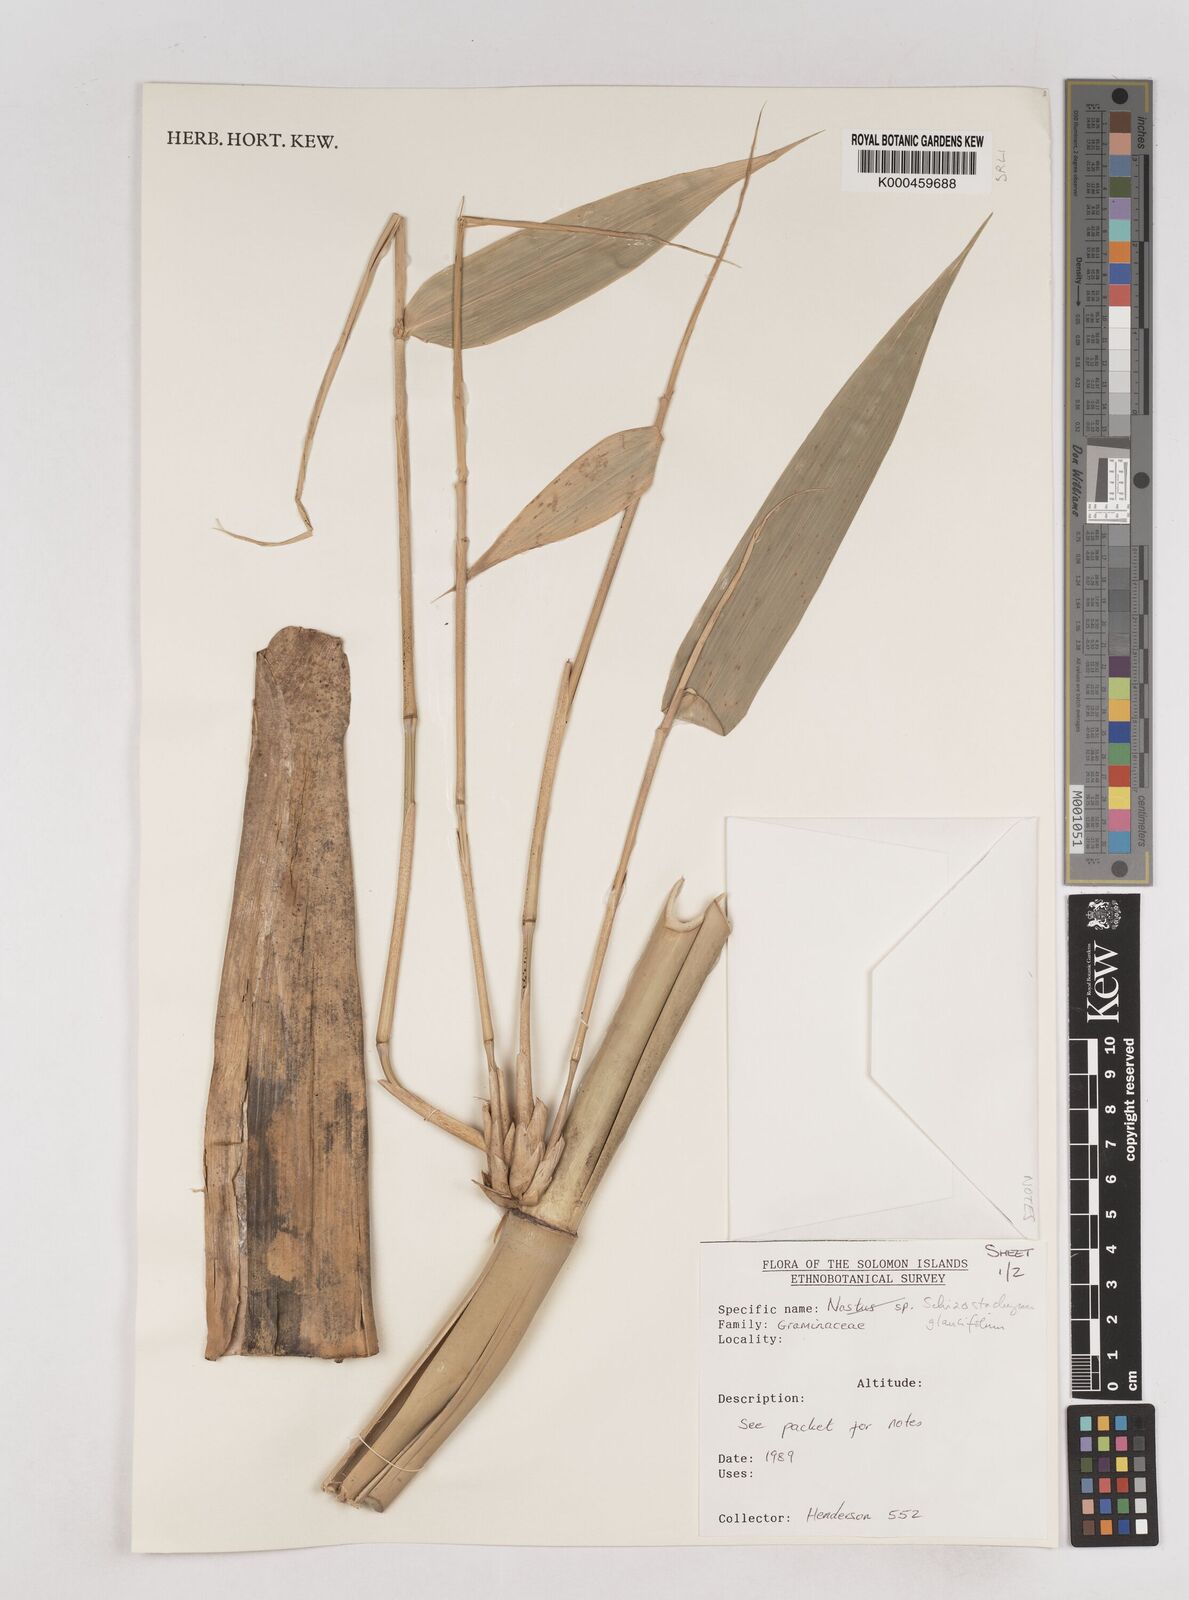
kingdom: Plantae
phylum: Tracheophyta
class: Liliopsida
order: Poales
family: Poaceae
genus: Schizostachyum
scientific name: Schizostachyum glaucifolium
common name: Polynesian 'ohe
